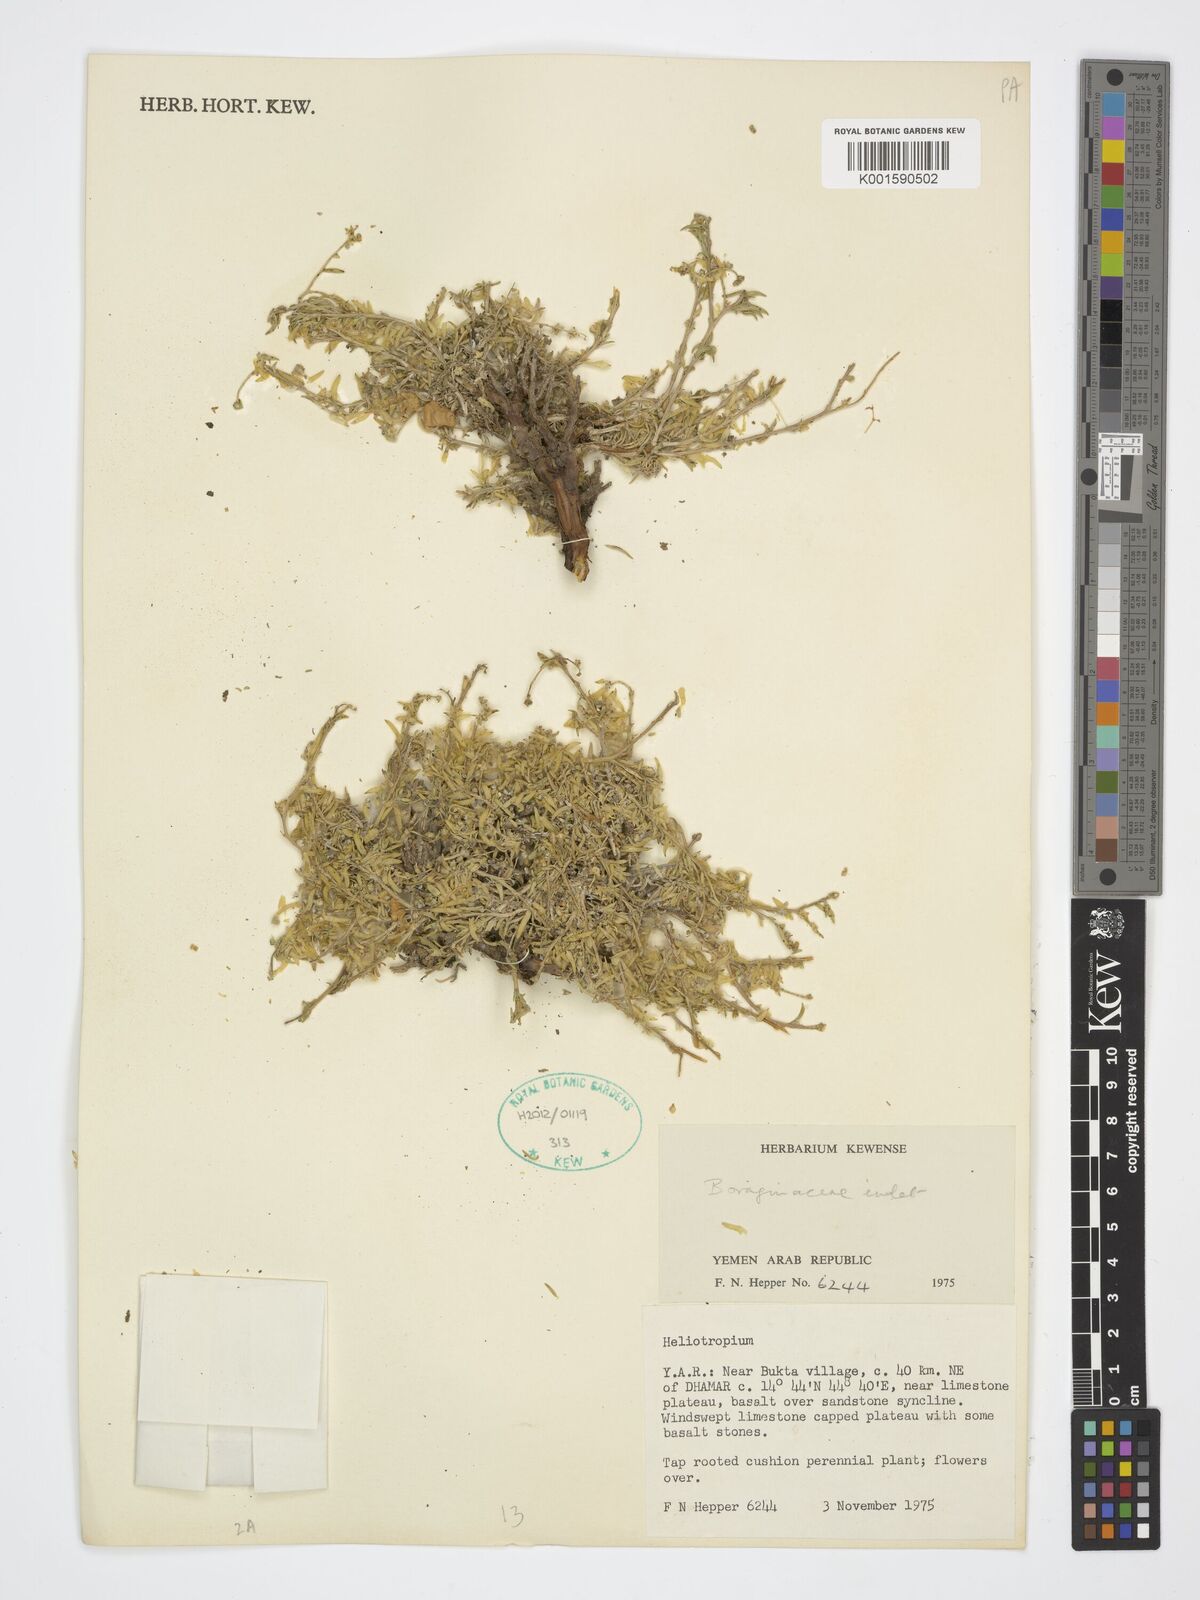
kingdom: Plantae
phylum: Tracheophyta
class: Magnoliopsida
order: Boraginales
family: Heliotropiaceae
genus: Heliotropium
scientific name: Heliotropium
